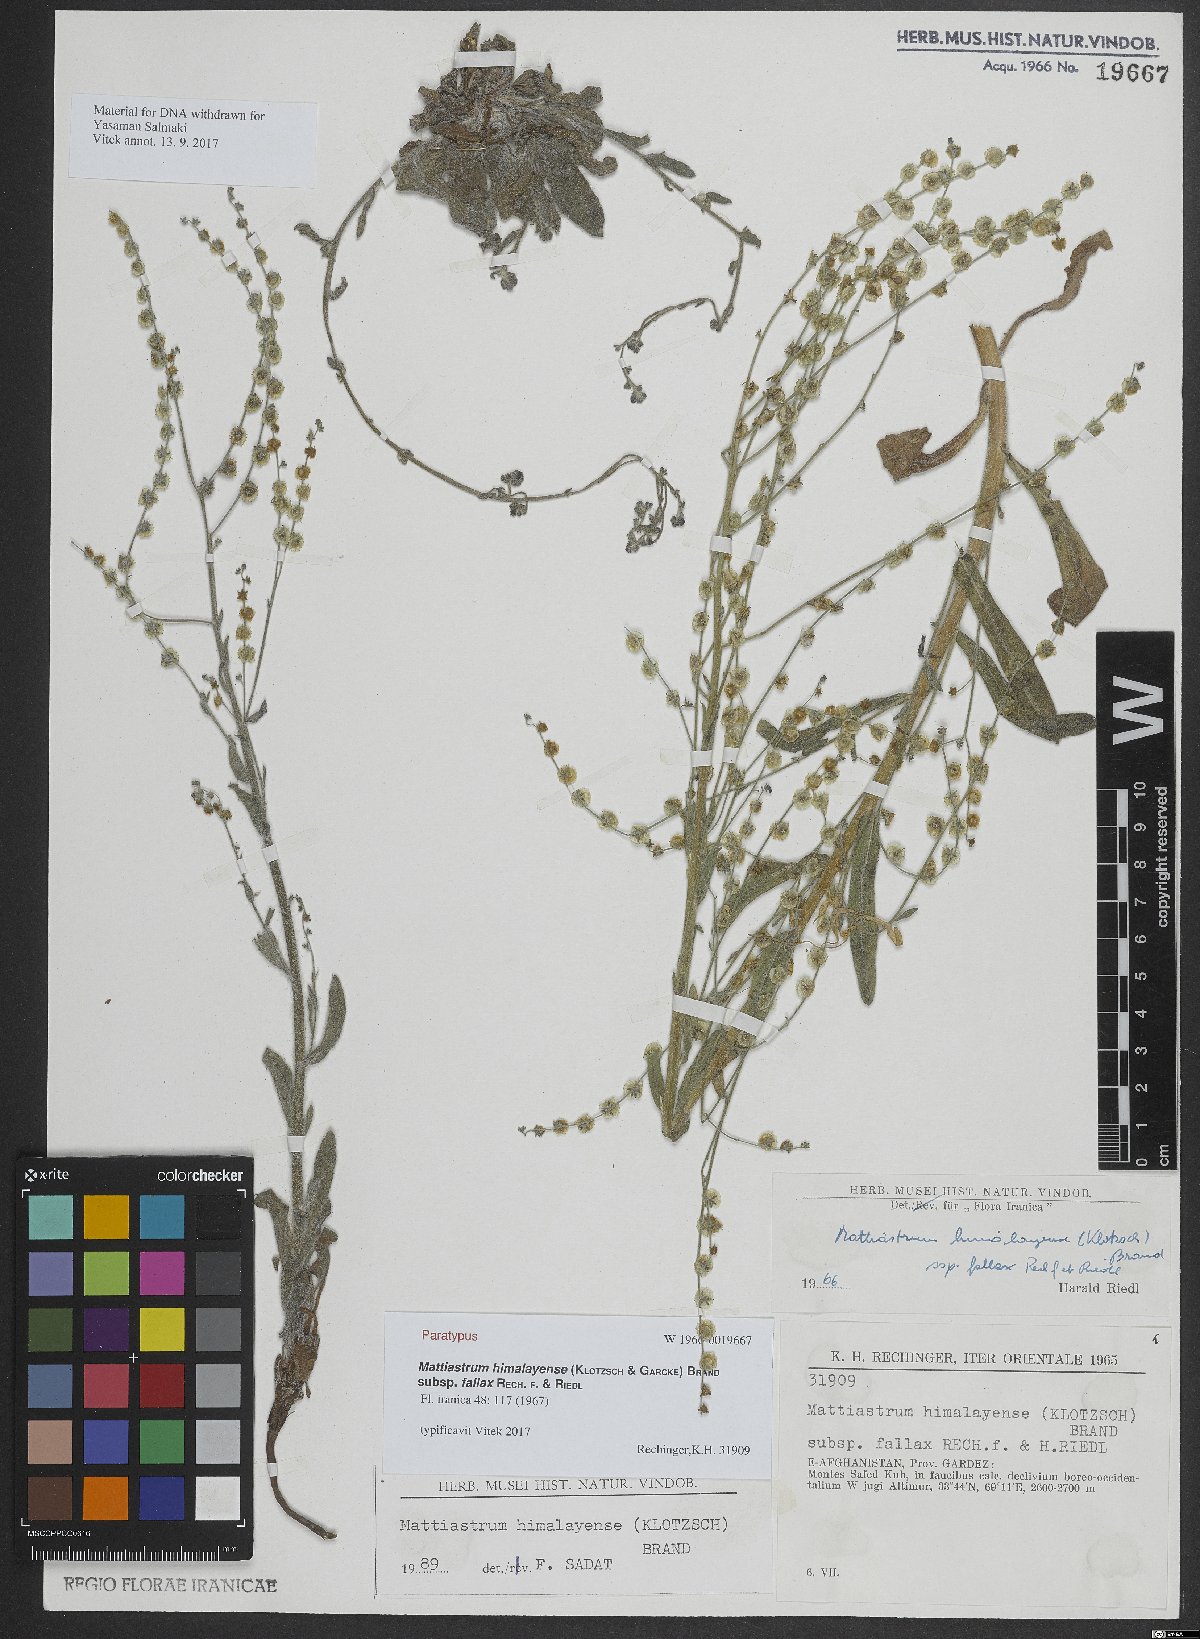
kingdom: Plantae
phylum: Tracheophyta
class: Magnoliopsida
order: Boraginales
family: Boraginaceae
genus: Paracaryum
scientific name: Paracaryum himalayense
